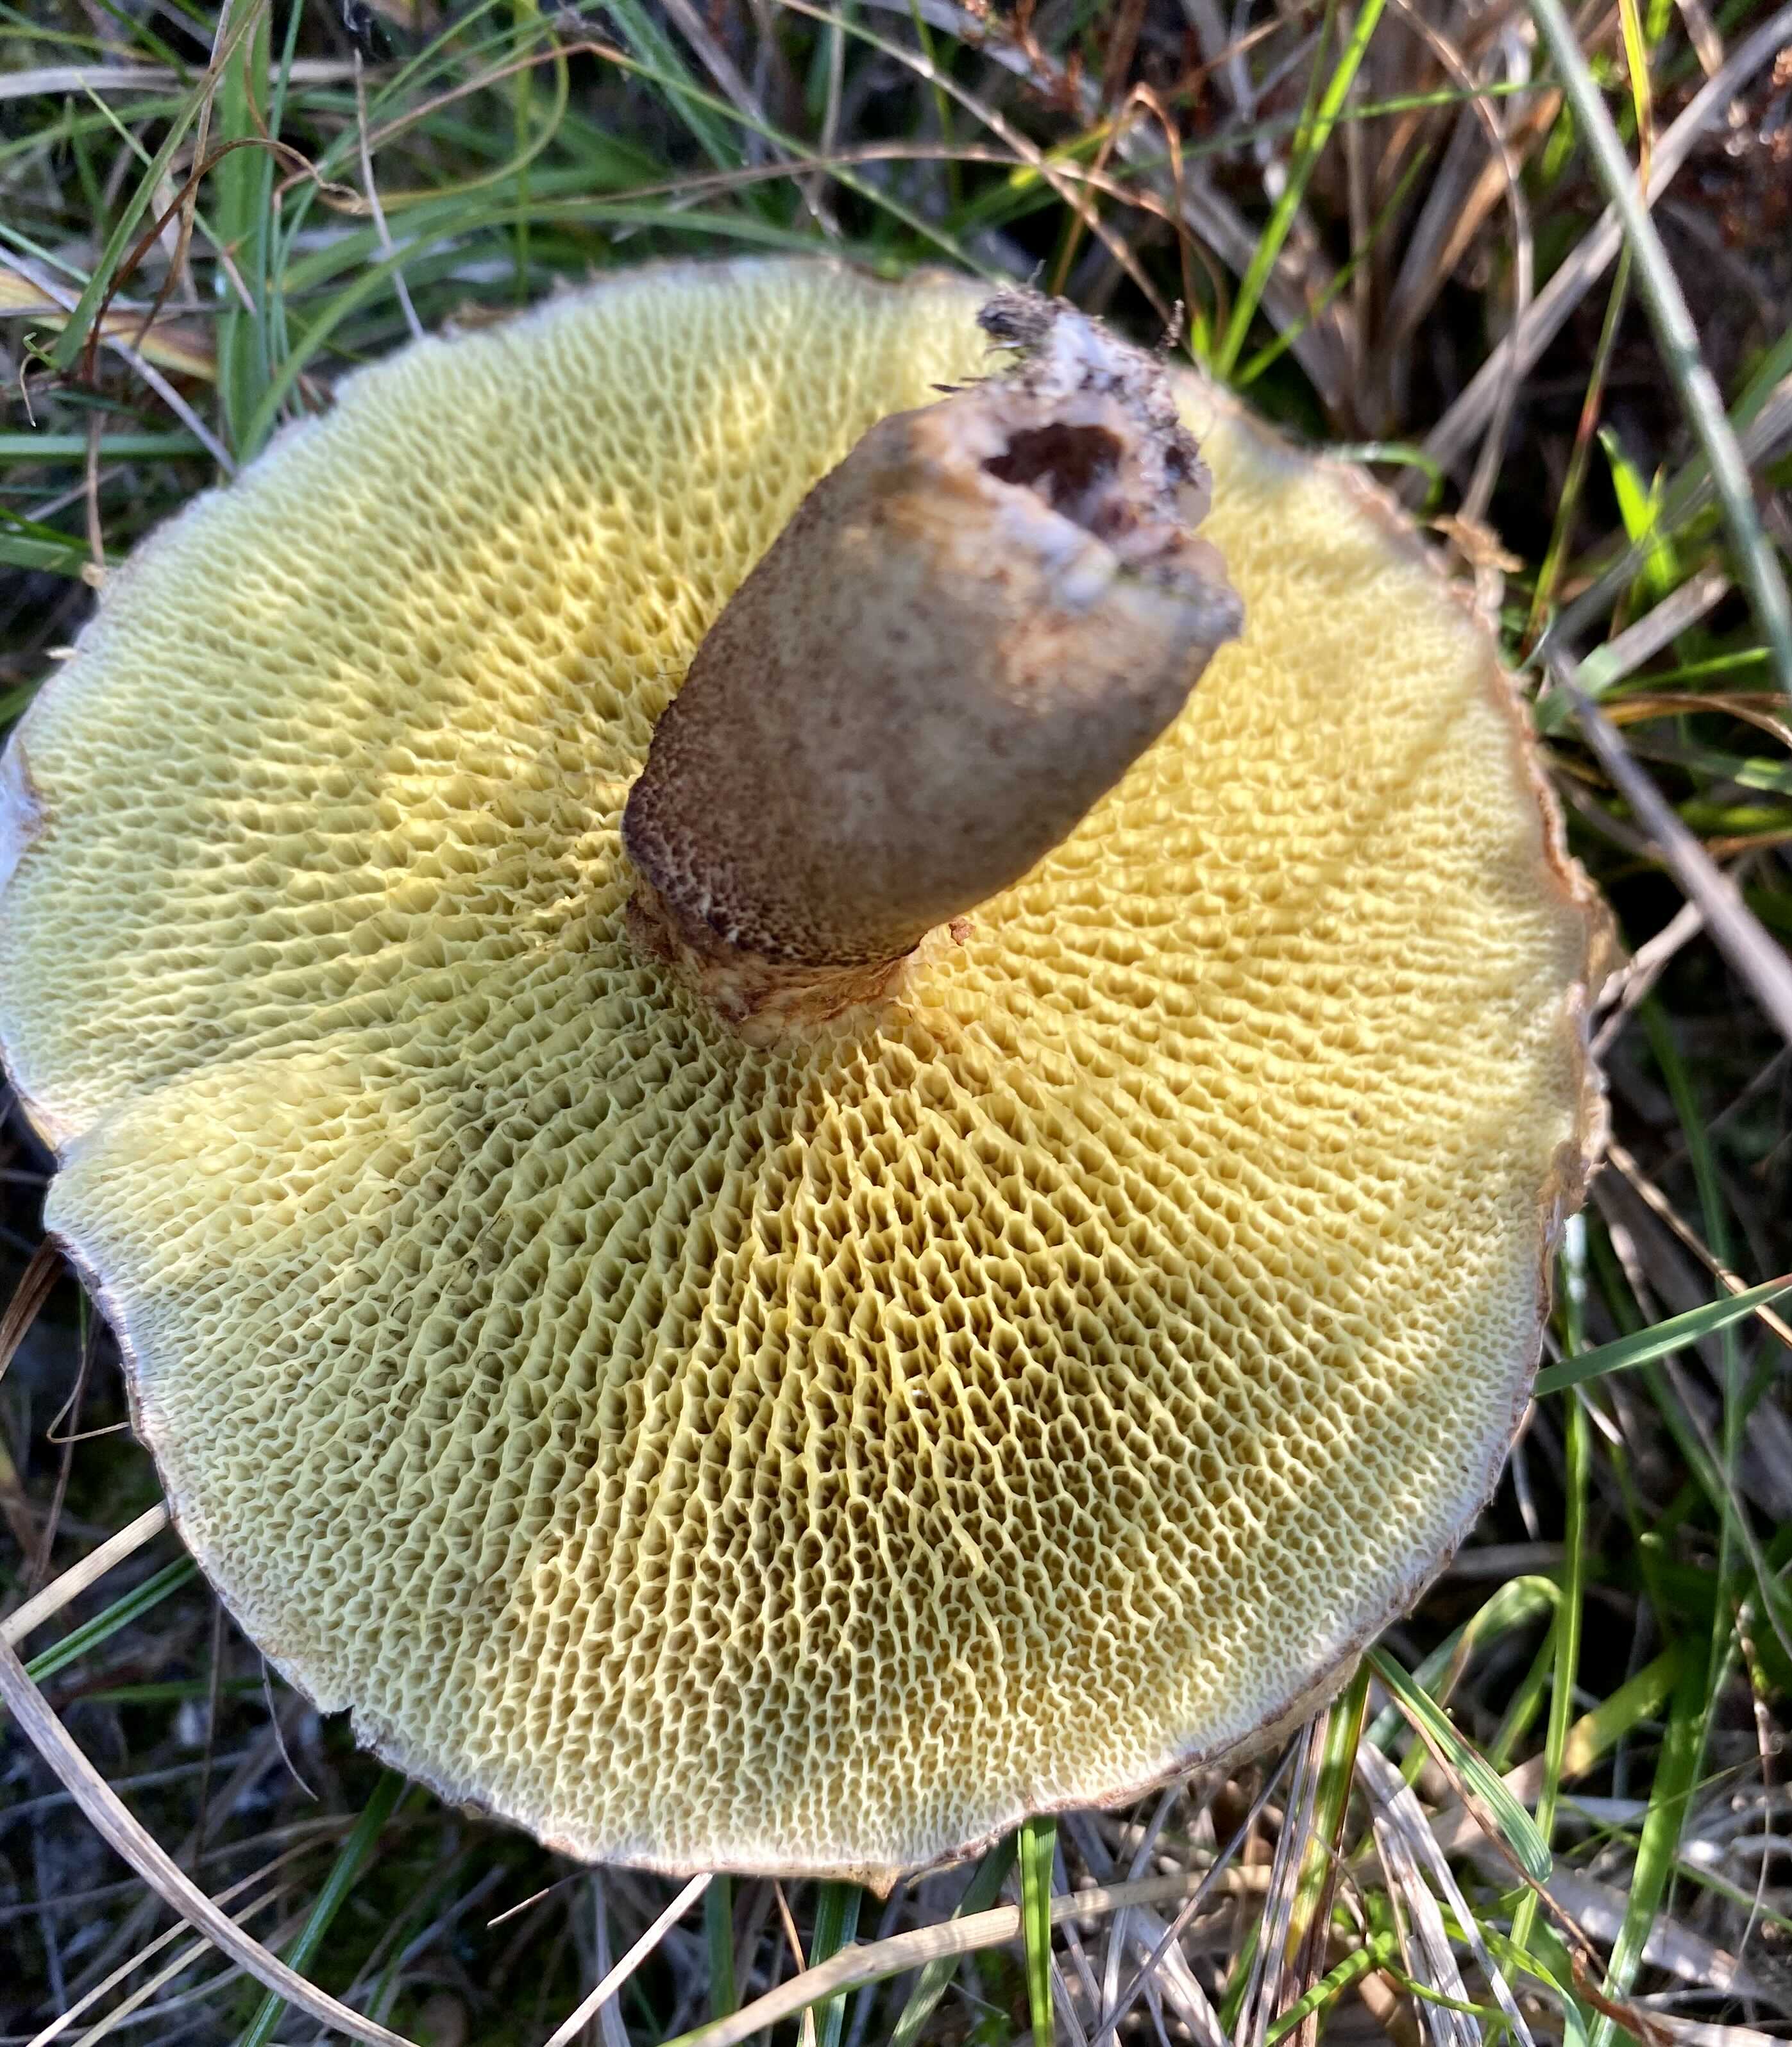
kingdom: Fungi
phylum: Basidiomycota
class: Agaricomycetes
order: Boletales
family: Suillaceae
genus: Suillus
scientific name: Suillus cavipes
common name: hulstokket slimrørhat
